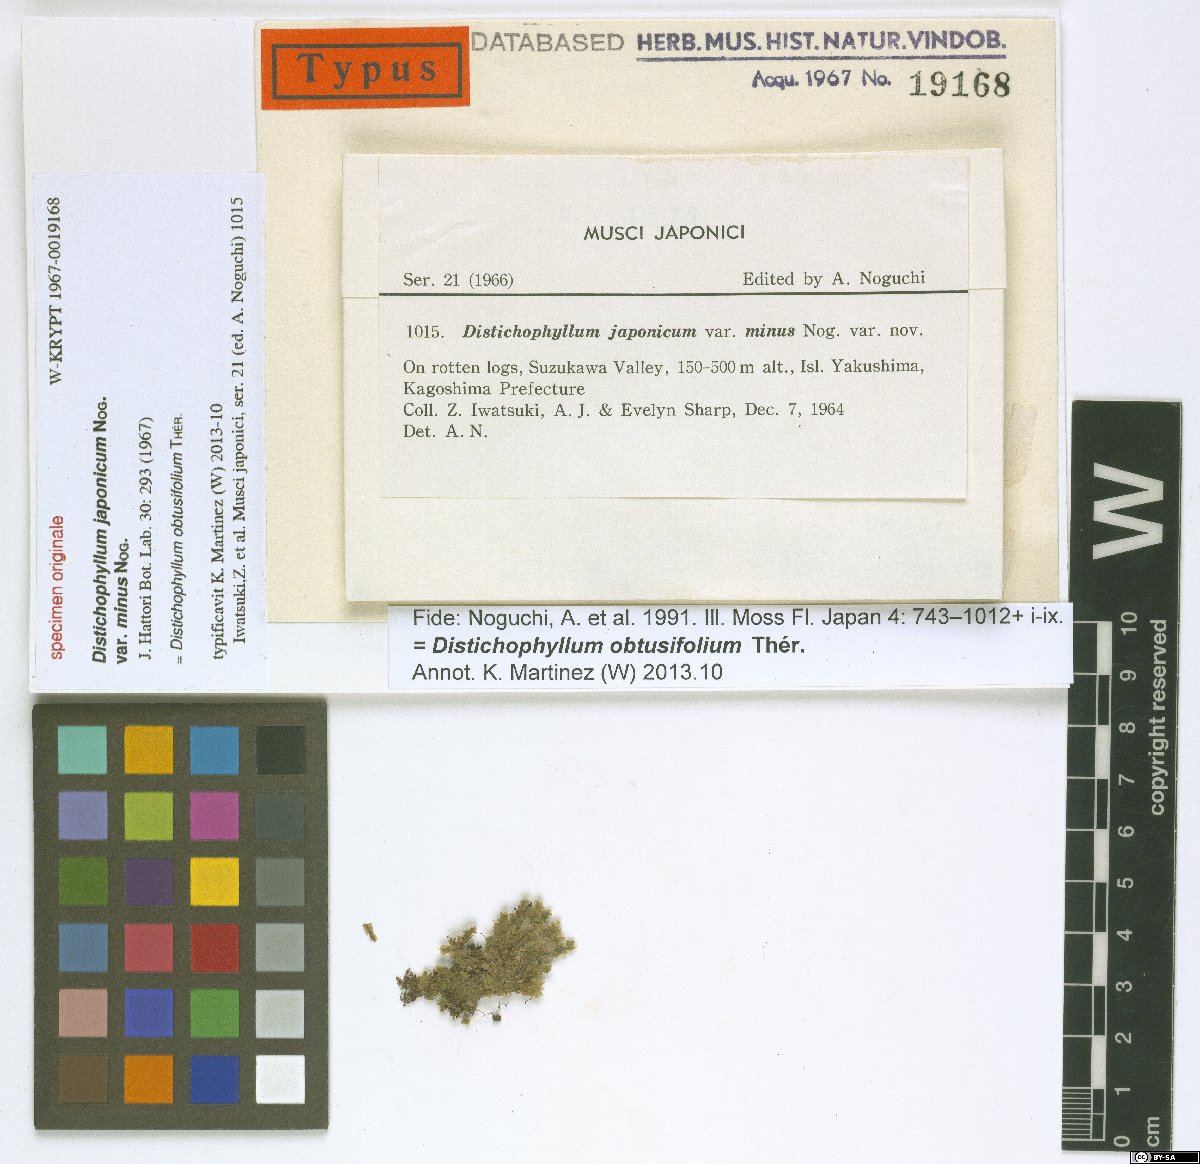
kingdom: Plantae
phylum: Bryophyta
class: Bryopsida
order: Hookeriales
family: Daltoniaceae
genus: Distichophyllum
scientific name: Distichophyllum obtusifolium
